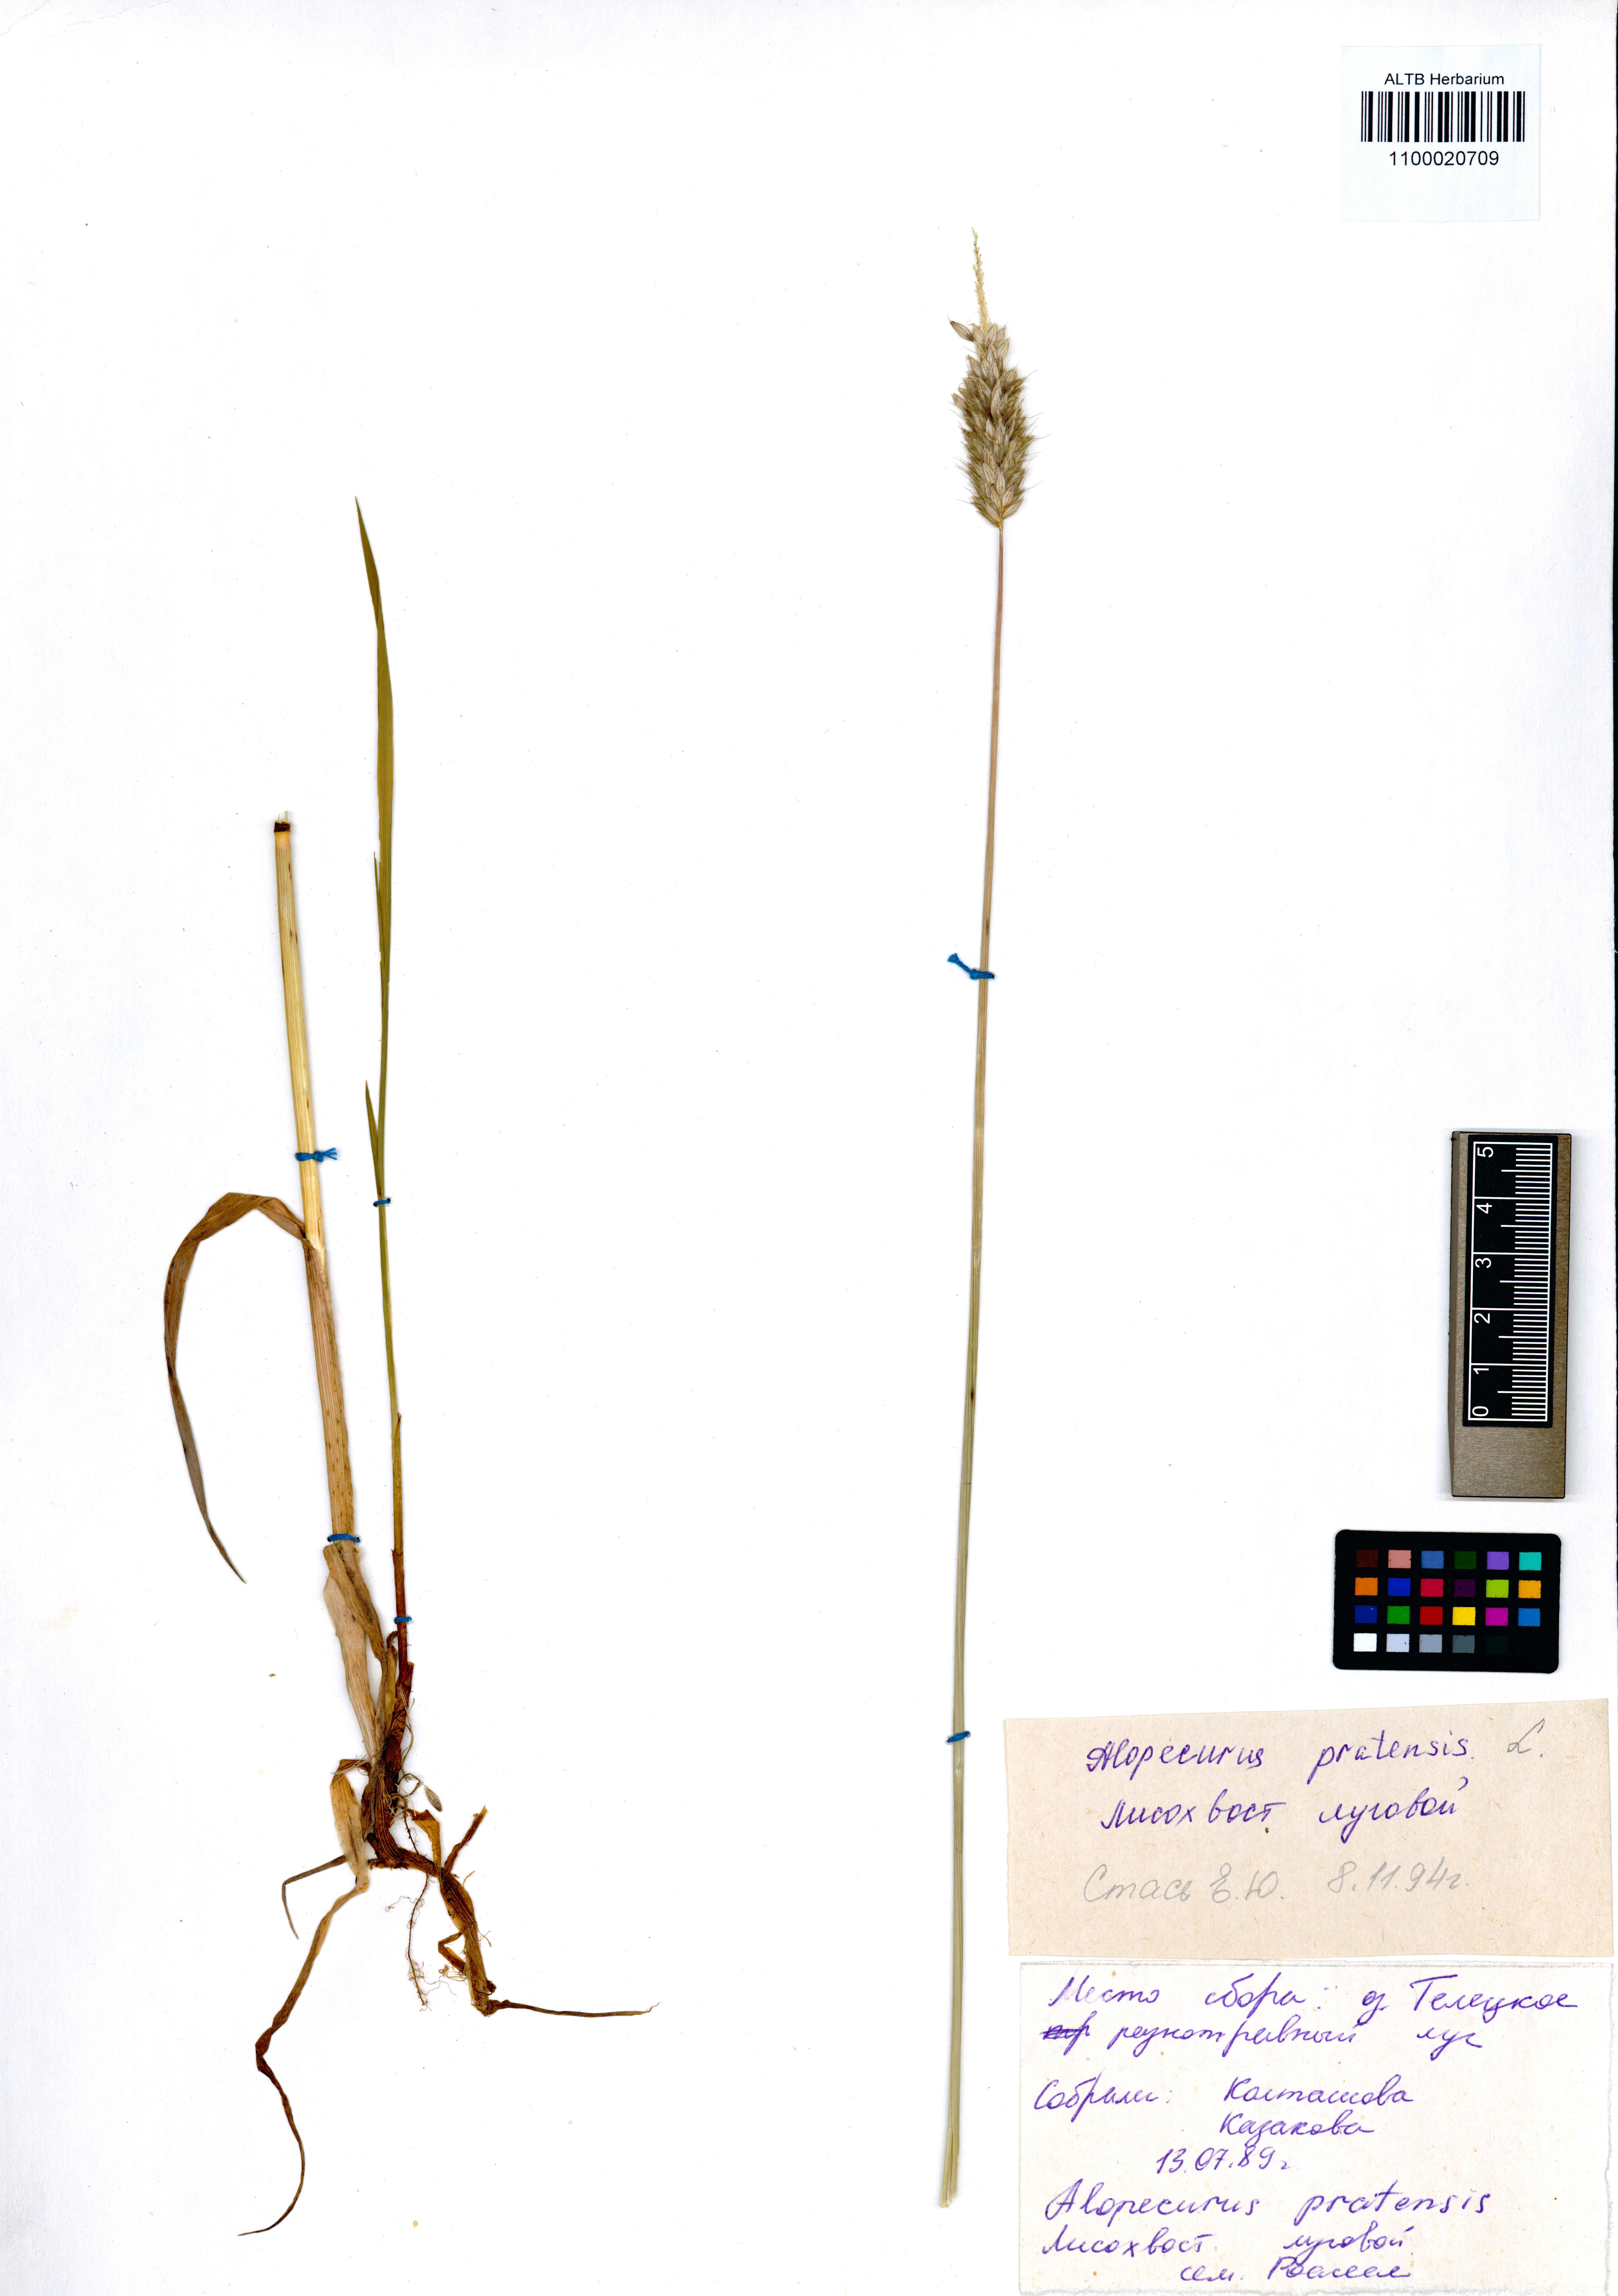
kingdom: Plantae
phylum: Tracheophyta
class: Liliopsida
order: Poales
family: Poaceae
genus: Alopecurus
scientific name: Alopecurus pratensis
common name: Meadow foxtail
